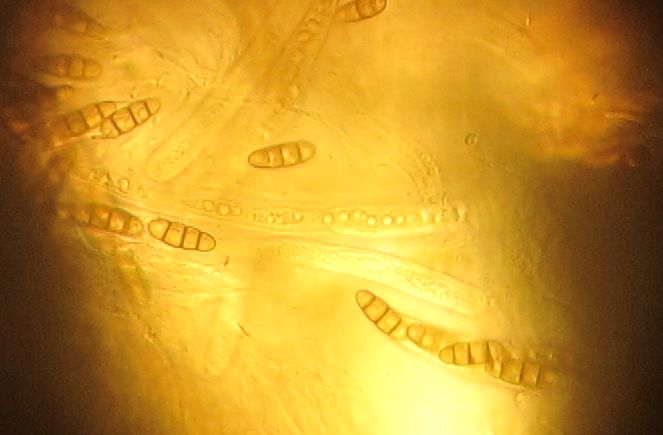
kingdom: Fungi
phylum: Ascomycota
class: Dothideomycetes
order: Hysteriales
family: Hysteriaceae
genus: Hysterium
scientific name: Hysterium acuminatum
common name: almindelig kulmund
